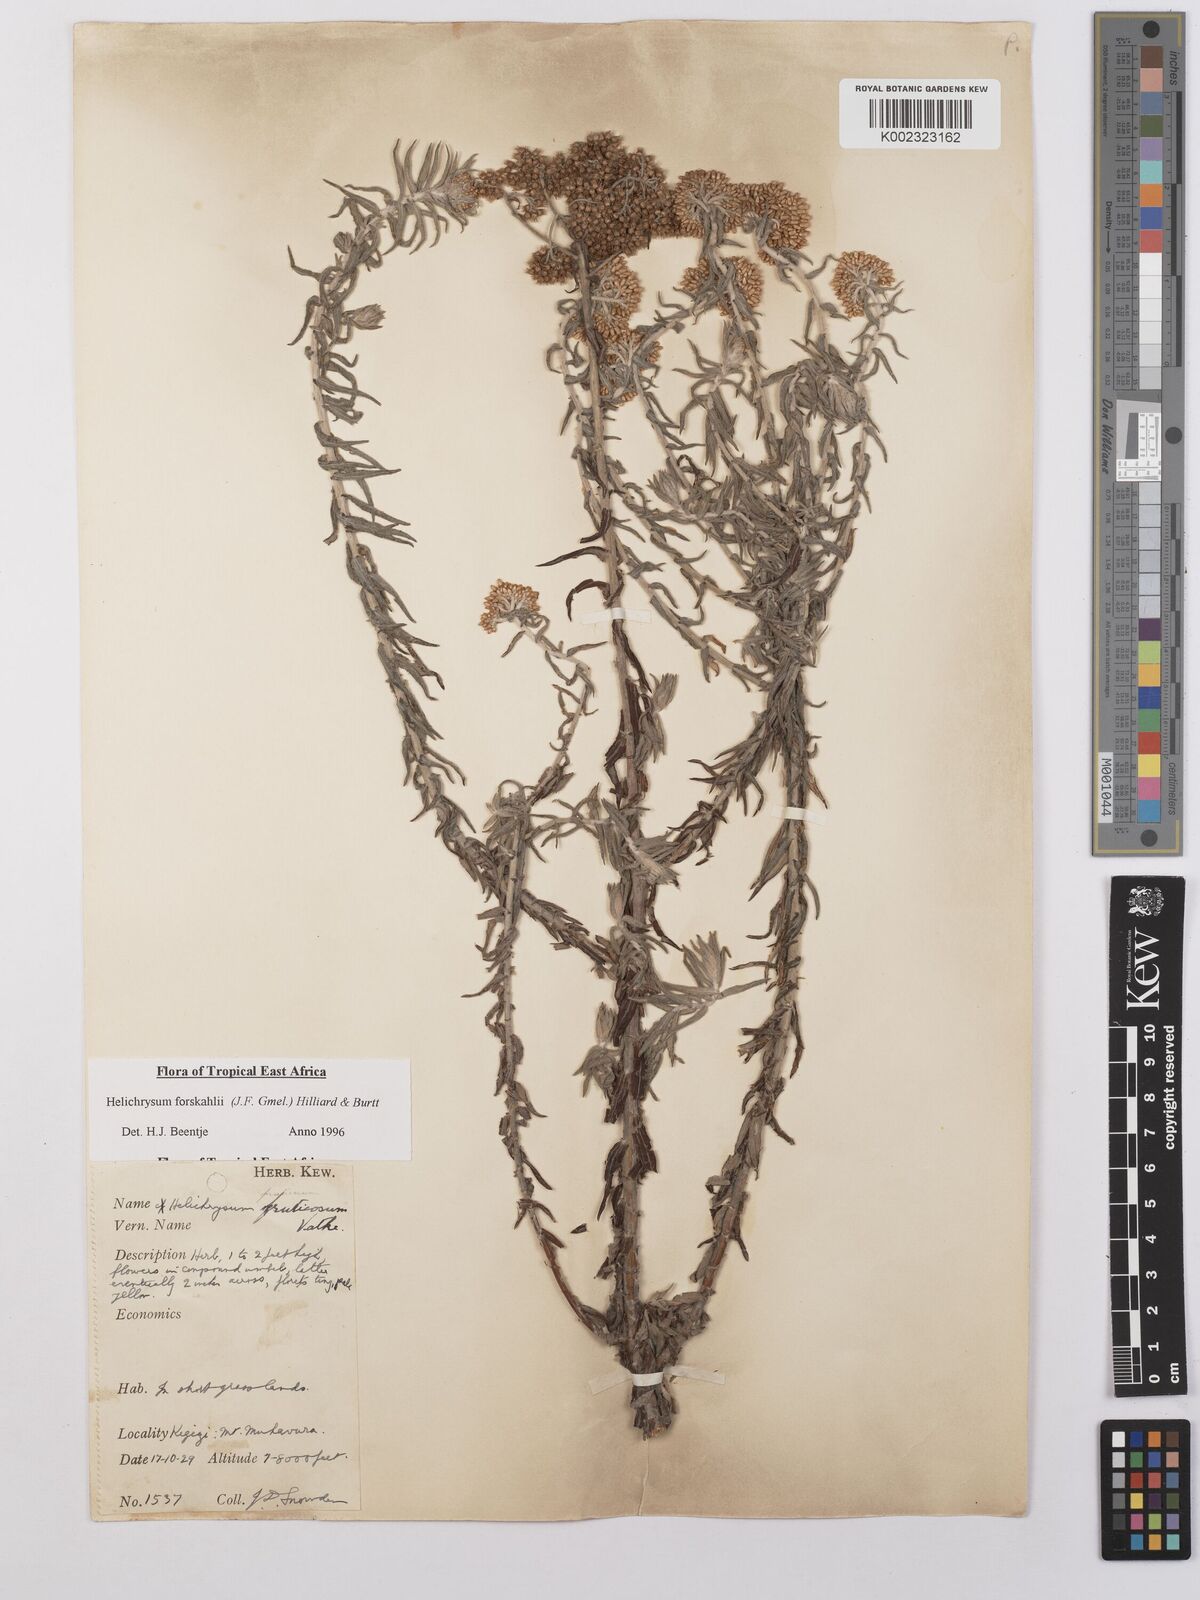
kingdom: Plantae
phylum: Tracheophyta
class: Magnoliopsida
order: Asterales
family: Asteraceae
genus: Helichrysum
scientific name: Helichrysum forskahlii
